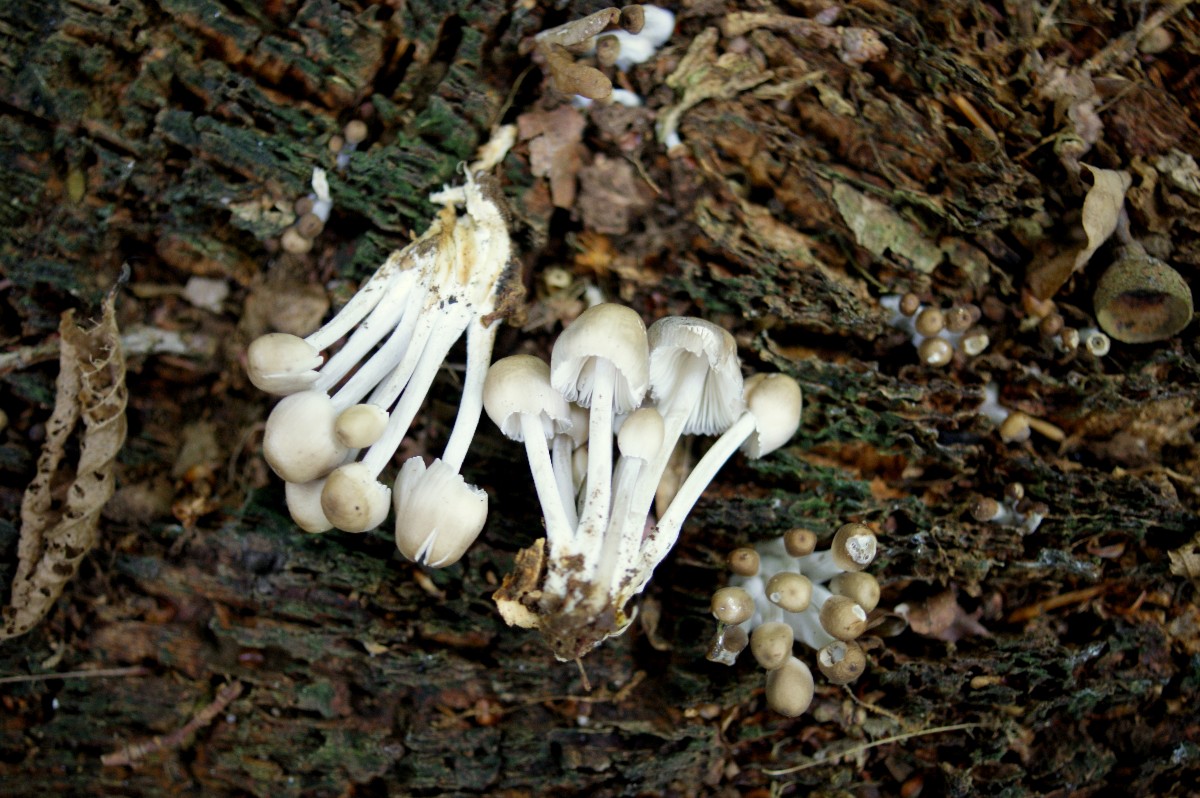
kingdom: Fungi
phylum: Basidiomycota
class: Agaricomycetes
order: Agaricales
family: Mycenaceae
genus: Mycena
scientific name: Mycena inclinata
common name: nikkende huesvamp
